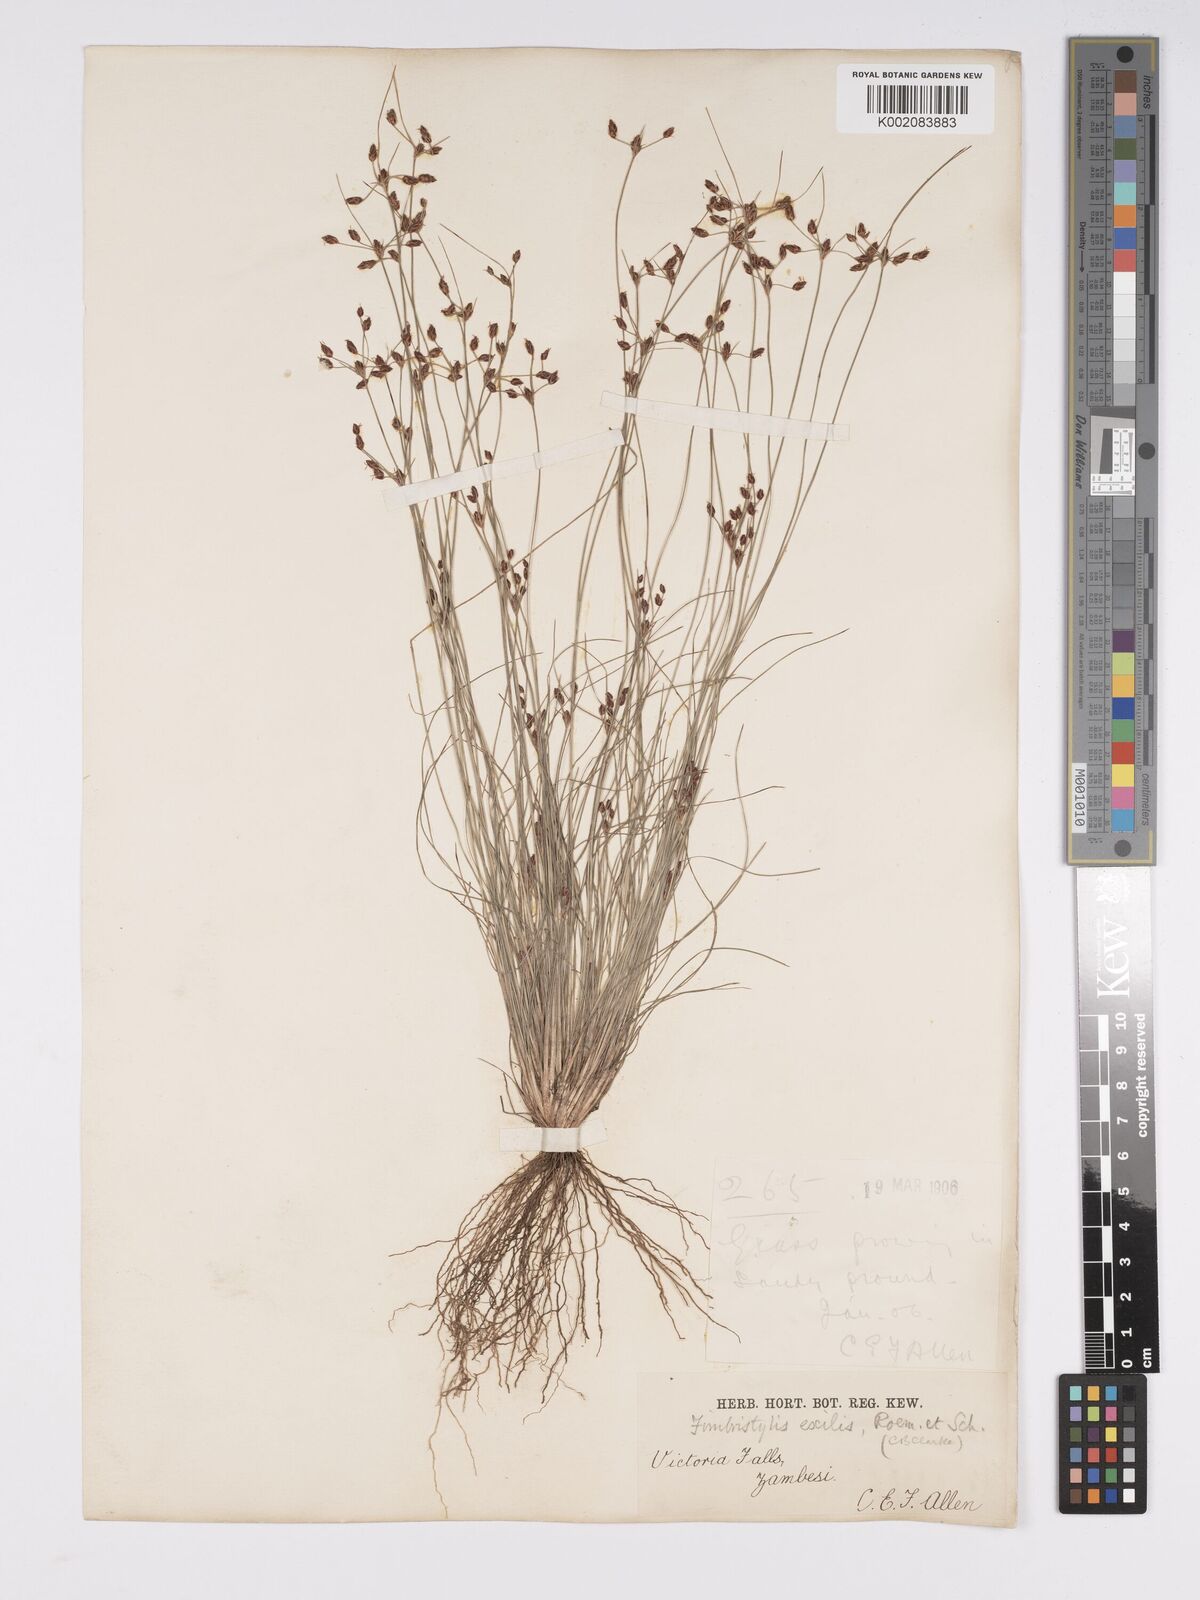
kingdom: Plantae
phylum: Tracheophyta
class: Liliopsida
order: Poales
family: Cyperaceae
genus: Bulbostylis
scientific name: Bulbostylis hispidula
